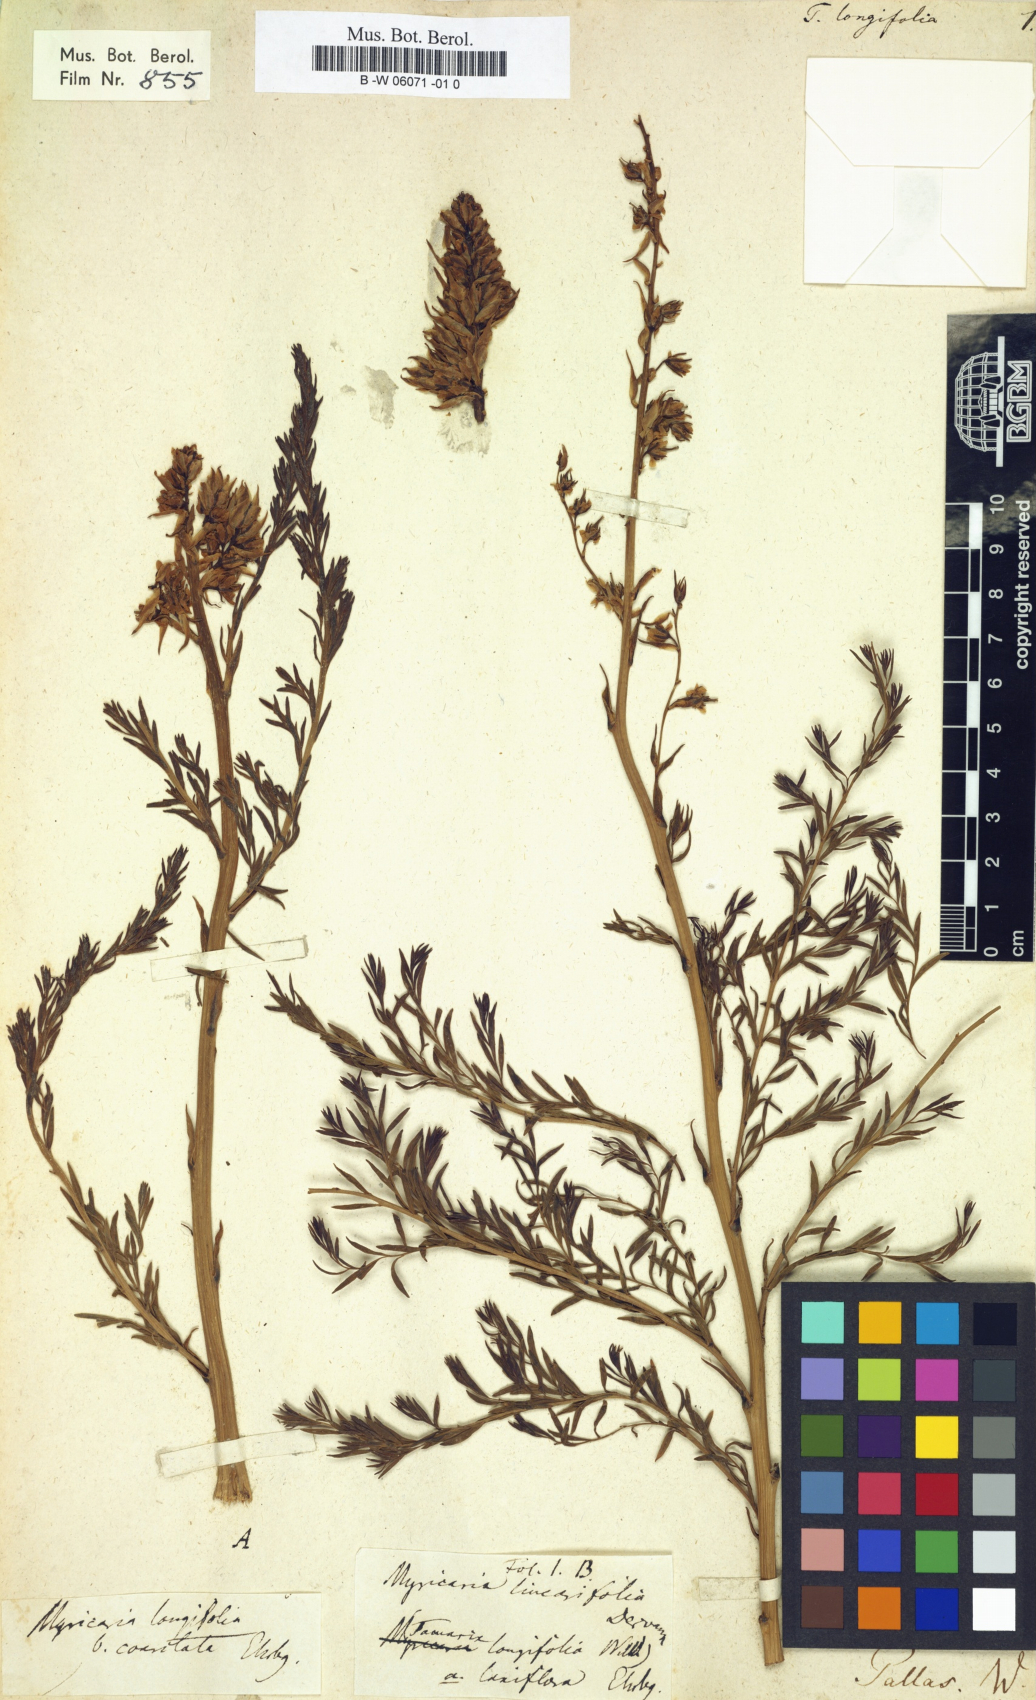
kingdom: Plantae
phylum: Tracheophyta
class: Magnoliopsida
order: Caryophyllales
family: Tamaricaceae
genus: Myricaria
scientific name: Myricaria longifolia
